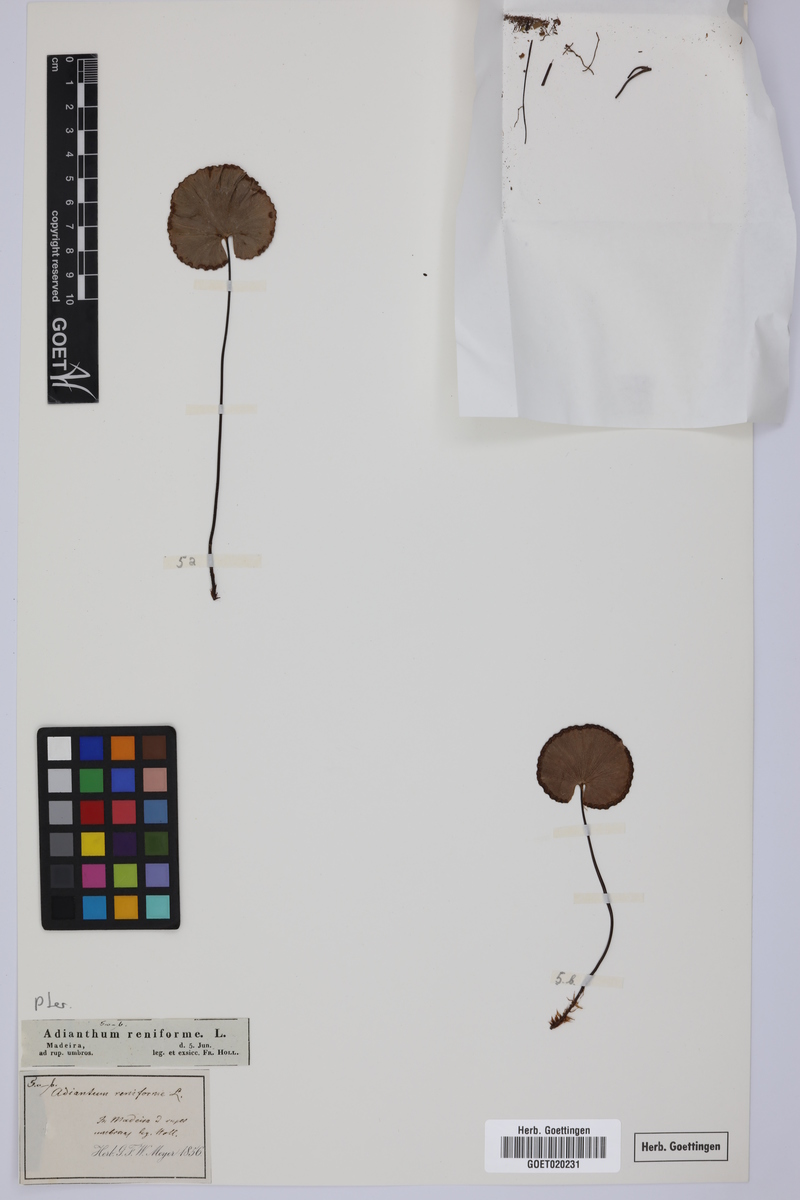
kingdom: Plantae
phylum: Tracheophyta
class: Polypodiopsida
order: Polypodiales
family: Pteridaceae
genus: Adiantum
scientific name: Adiantum reniforme
